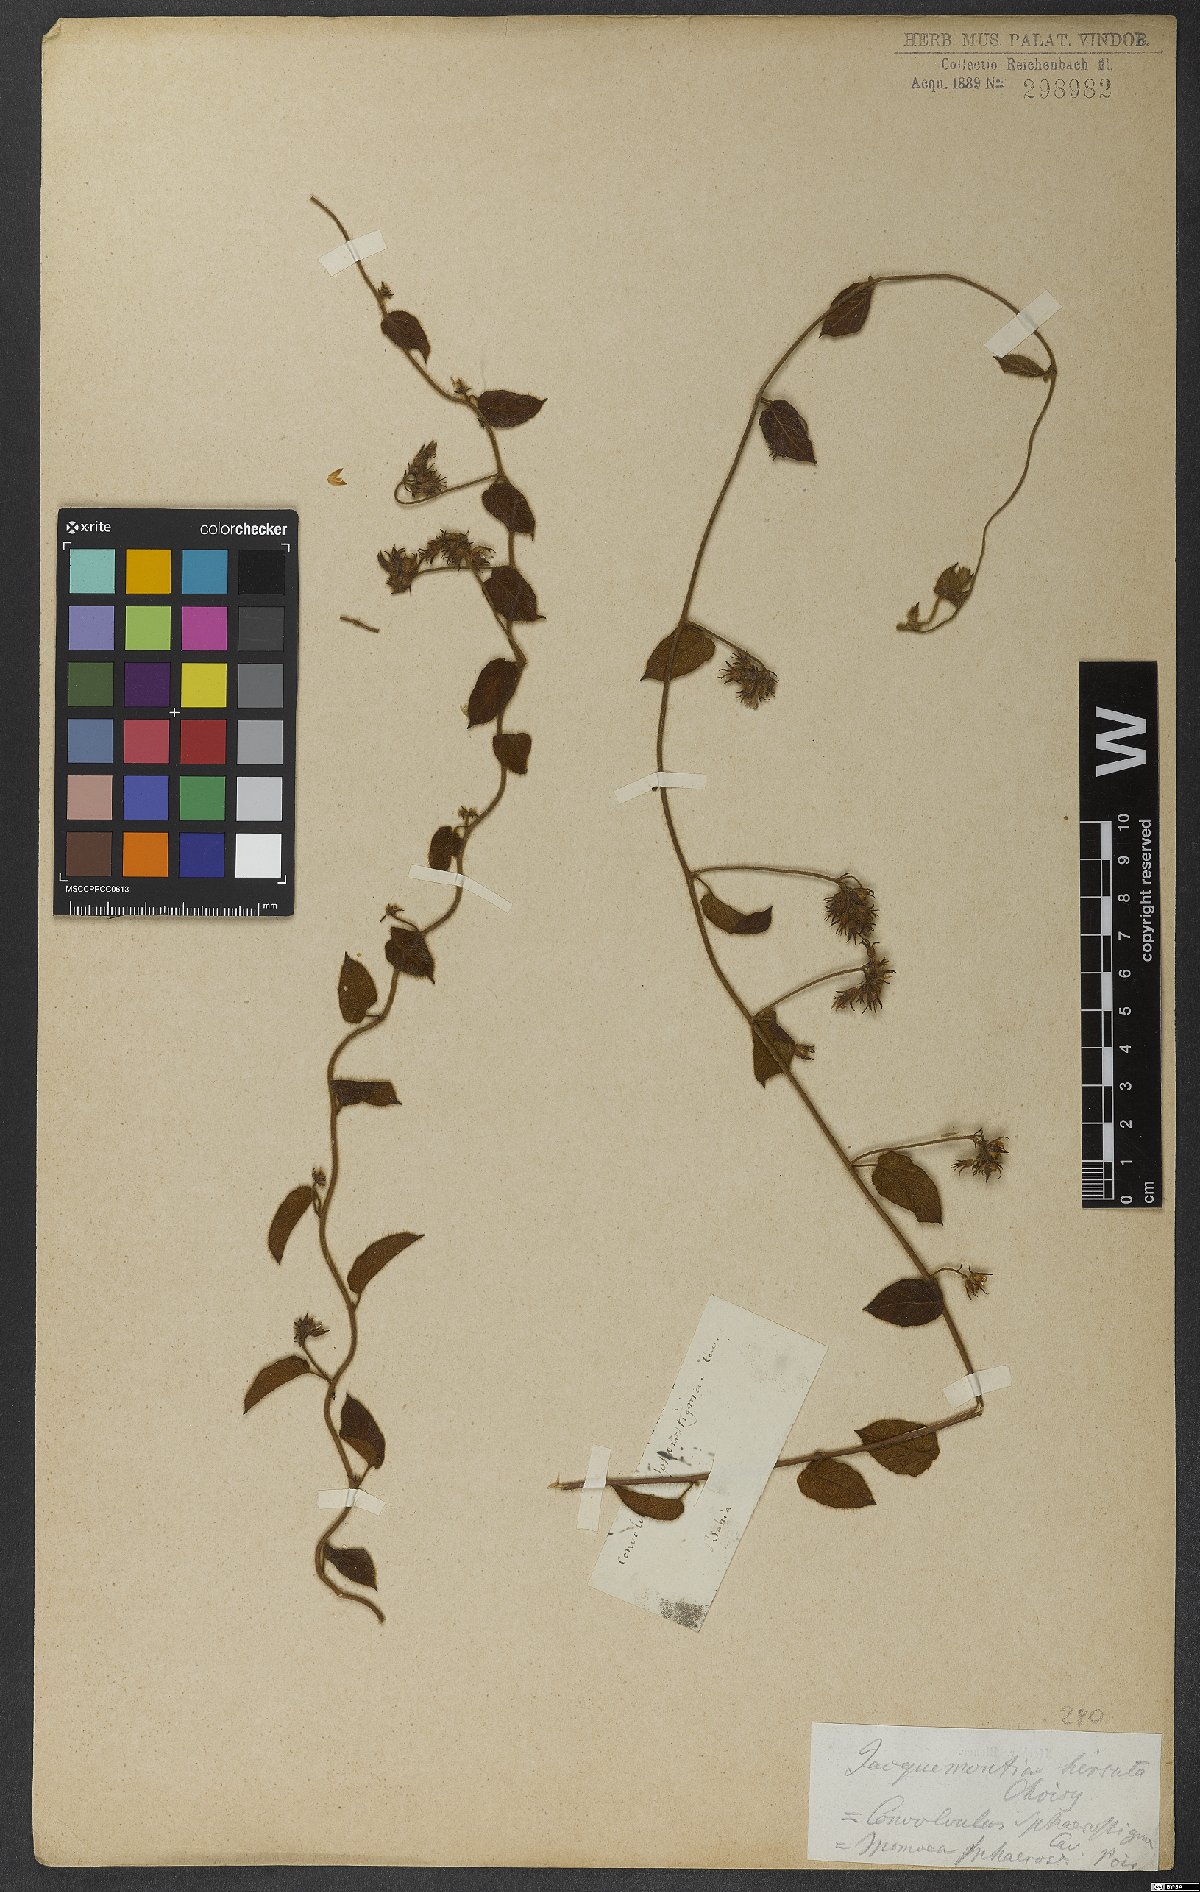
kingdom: Plantae
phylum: Tracheophyta
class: Magnoliopsida
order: Solanales
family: Convolvulaceae
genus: Jacquemontia
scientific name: Jacquemontia sphaerostigma
